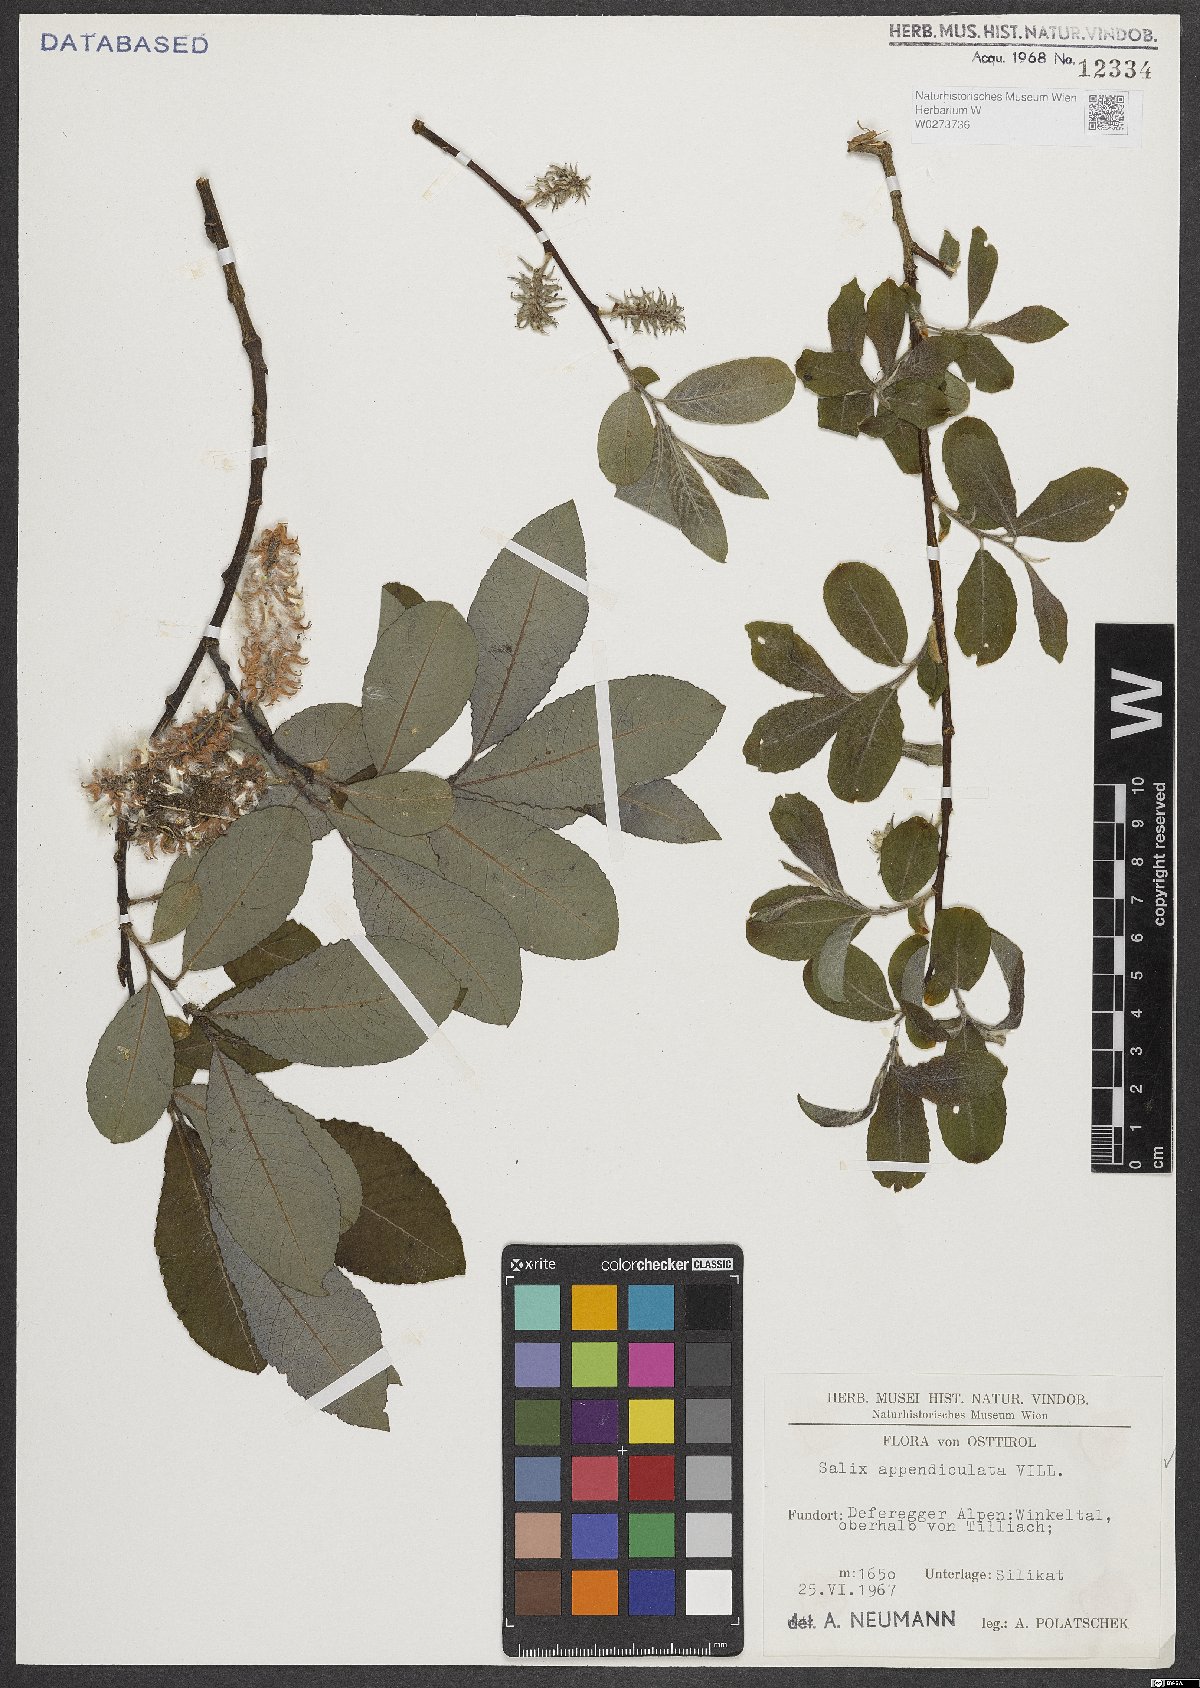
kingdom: Plantae
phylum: Tracheophyta
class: Magnoliopsida
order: Malpighiales
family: Salicaceae
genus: Salix
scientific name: Salix appendiculata
